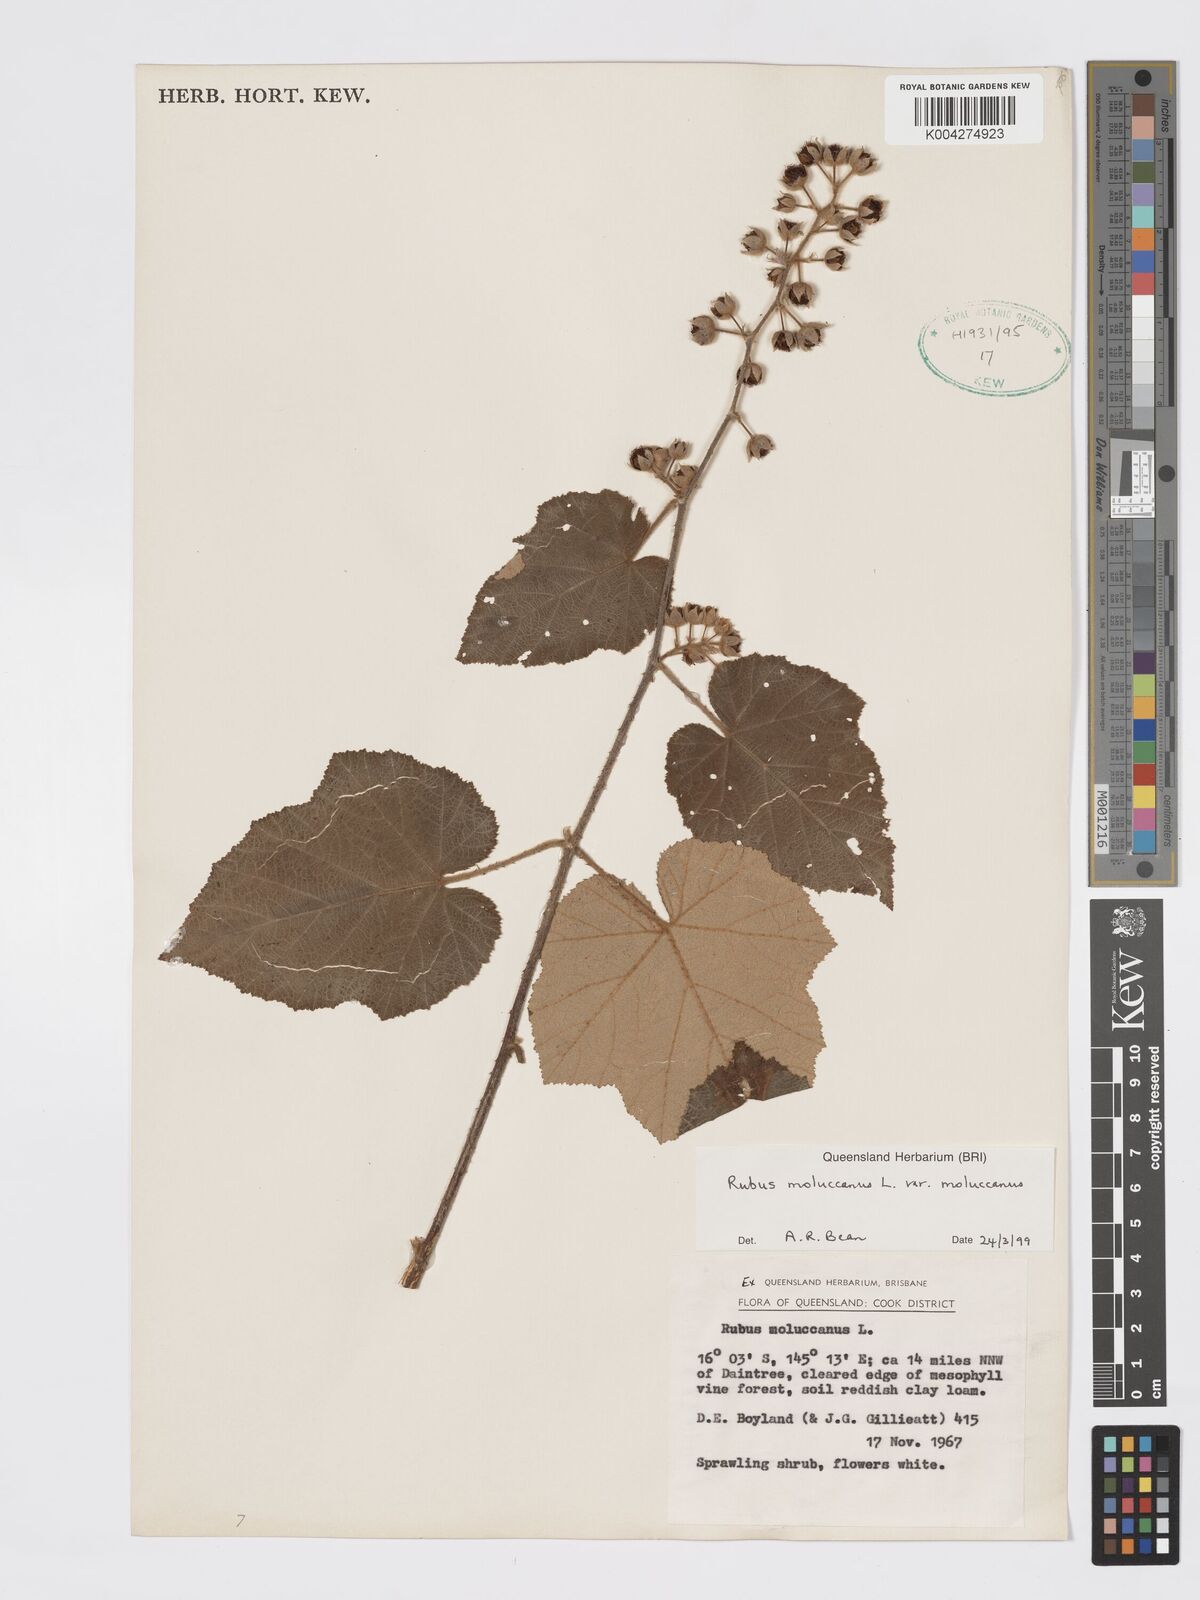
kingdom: Plantae
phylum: Tracheophyta
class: Magnoliopsida
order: Rosales
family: Rosaceae
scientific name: Rosaceae
